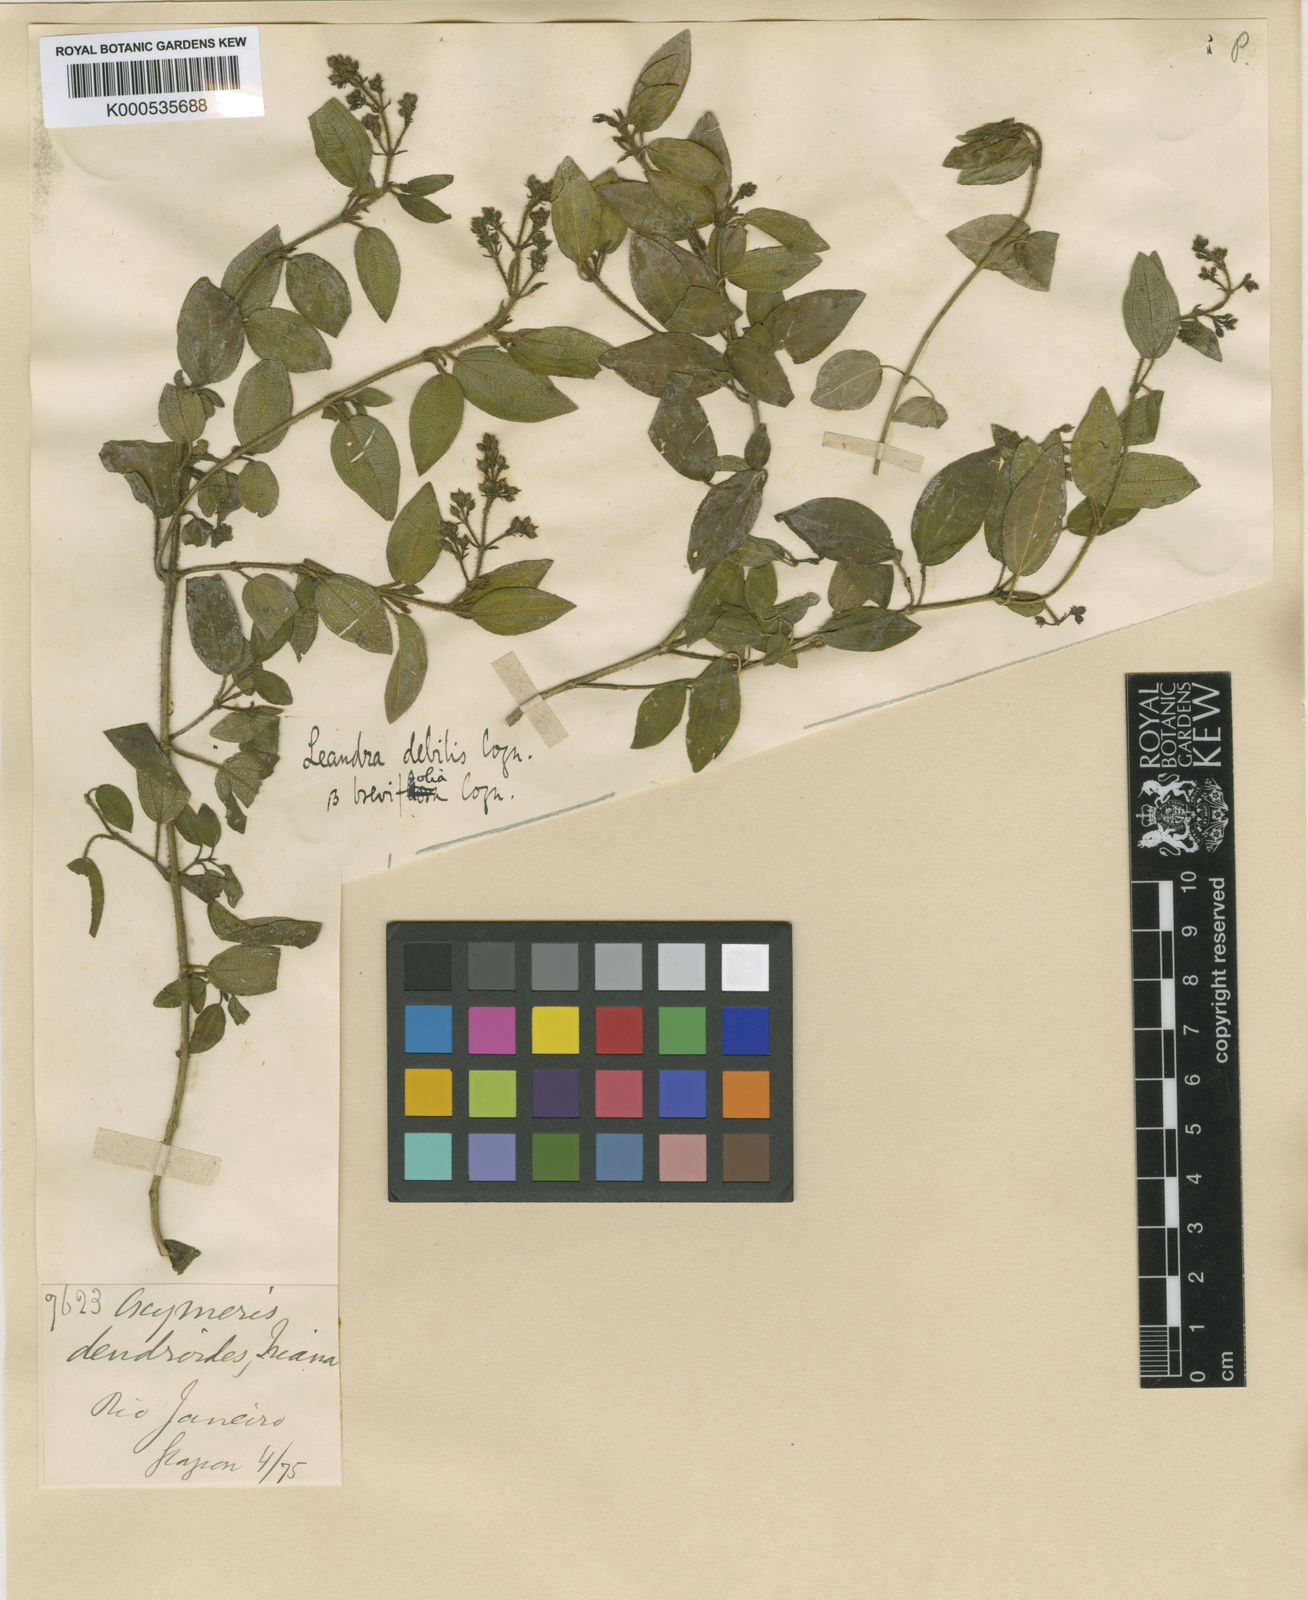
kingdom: Plantae
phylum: Tracheophyta
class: Magnoliopsida
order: Myrtales
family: Melastomataceae
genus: Miconia
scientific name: Miconia leadebilis
